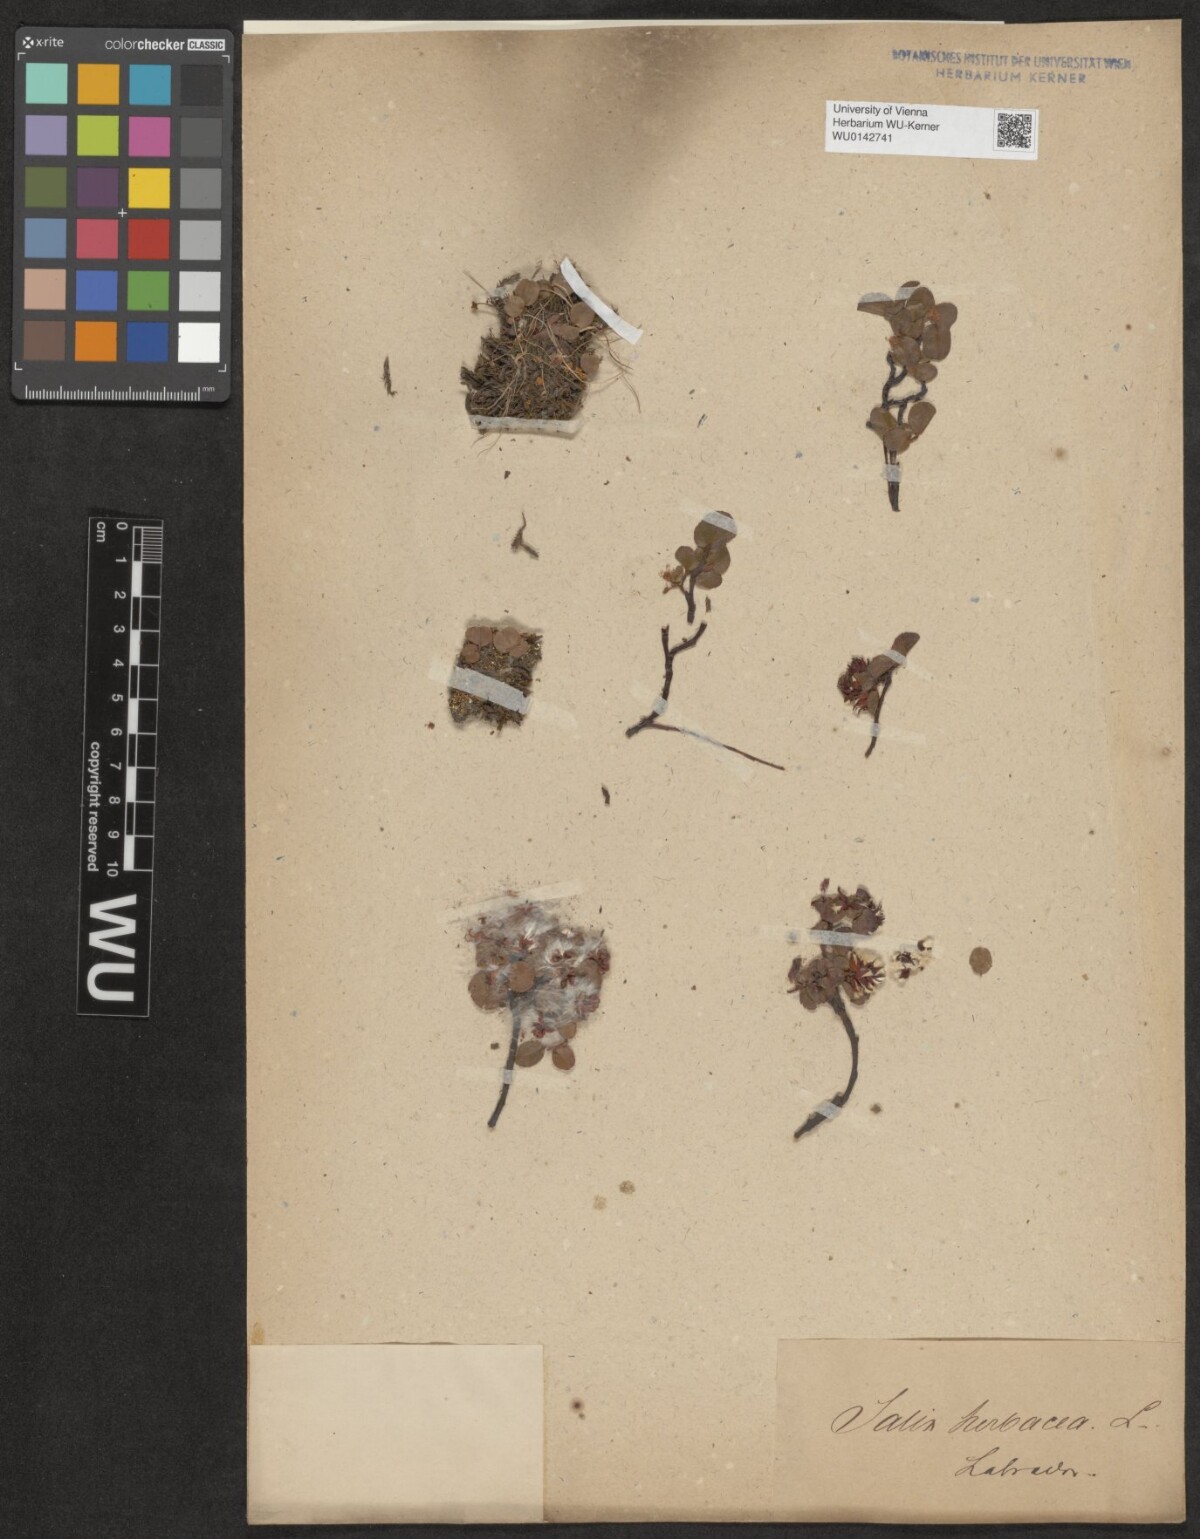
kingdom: Plantae
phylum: Tracheophyta
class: Magnoliopsida
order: Malpighiales
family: Salicaceae
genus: Salix
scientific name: Salix herbacea
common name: Dwarf willow
